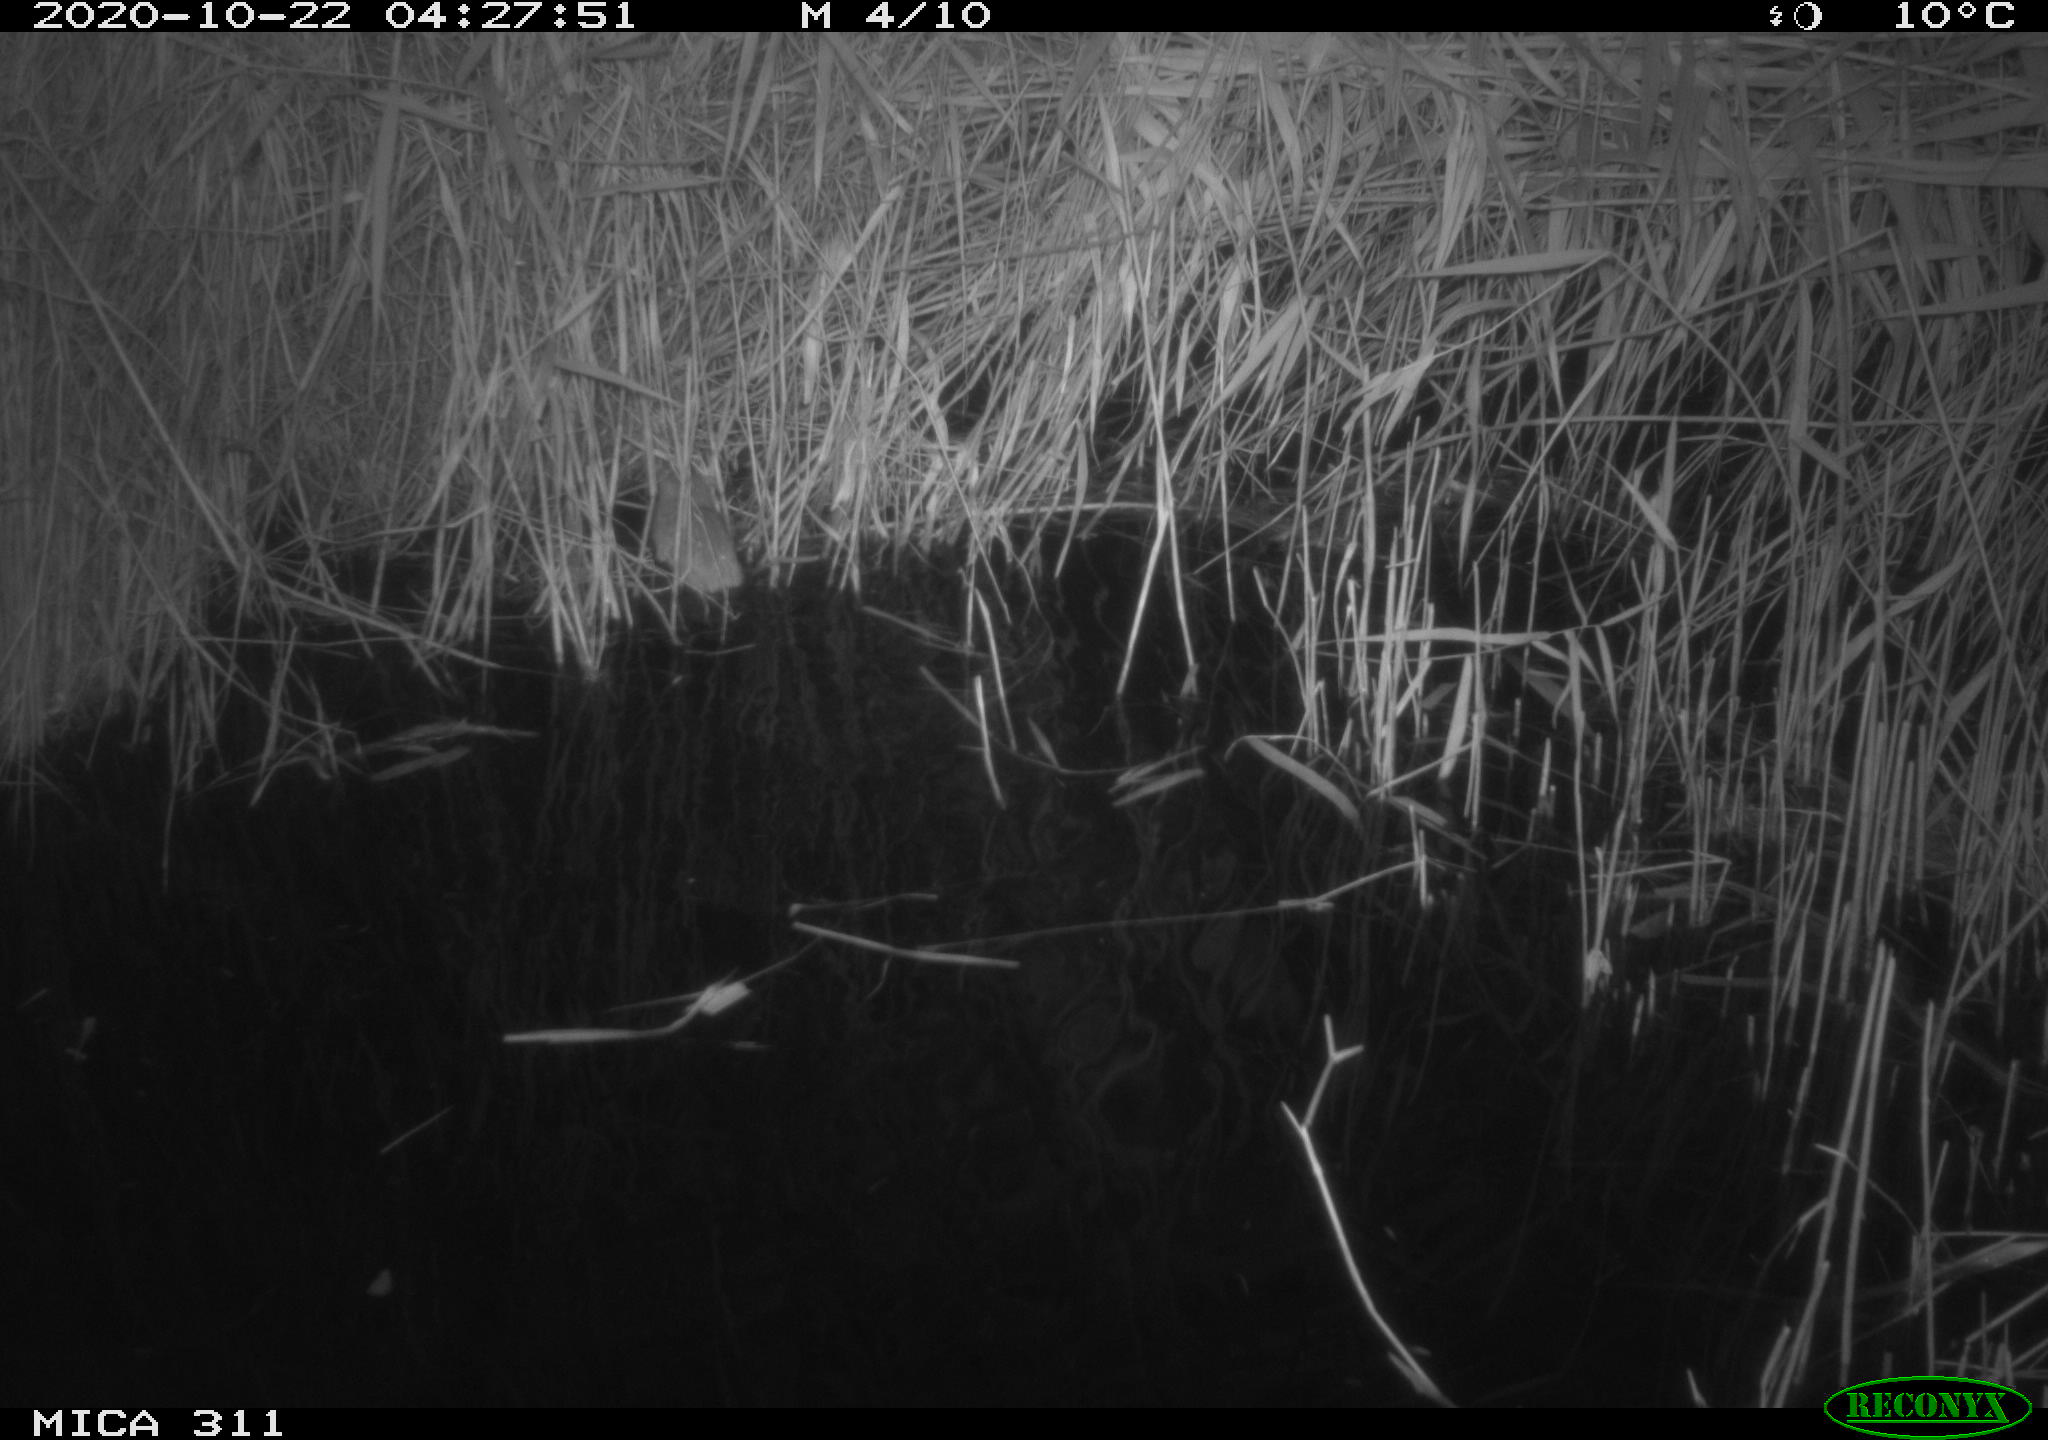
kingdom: Animalia
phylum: Chordata
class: Mammalia
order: Rodentia
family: Muridae
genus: Rattus
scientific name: Rattus norvegicus
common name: Brown rat
